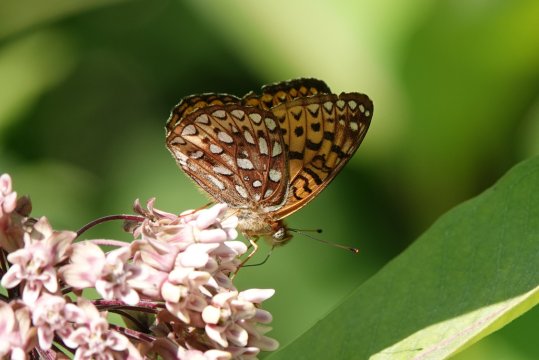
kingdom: Animalia
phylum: Arthropoda
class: Insecta
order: Lepidoptera
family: Nymphalidae
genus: Speyeria
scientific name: Speyeria atlantis
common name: Atlantis Fritillary
